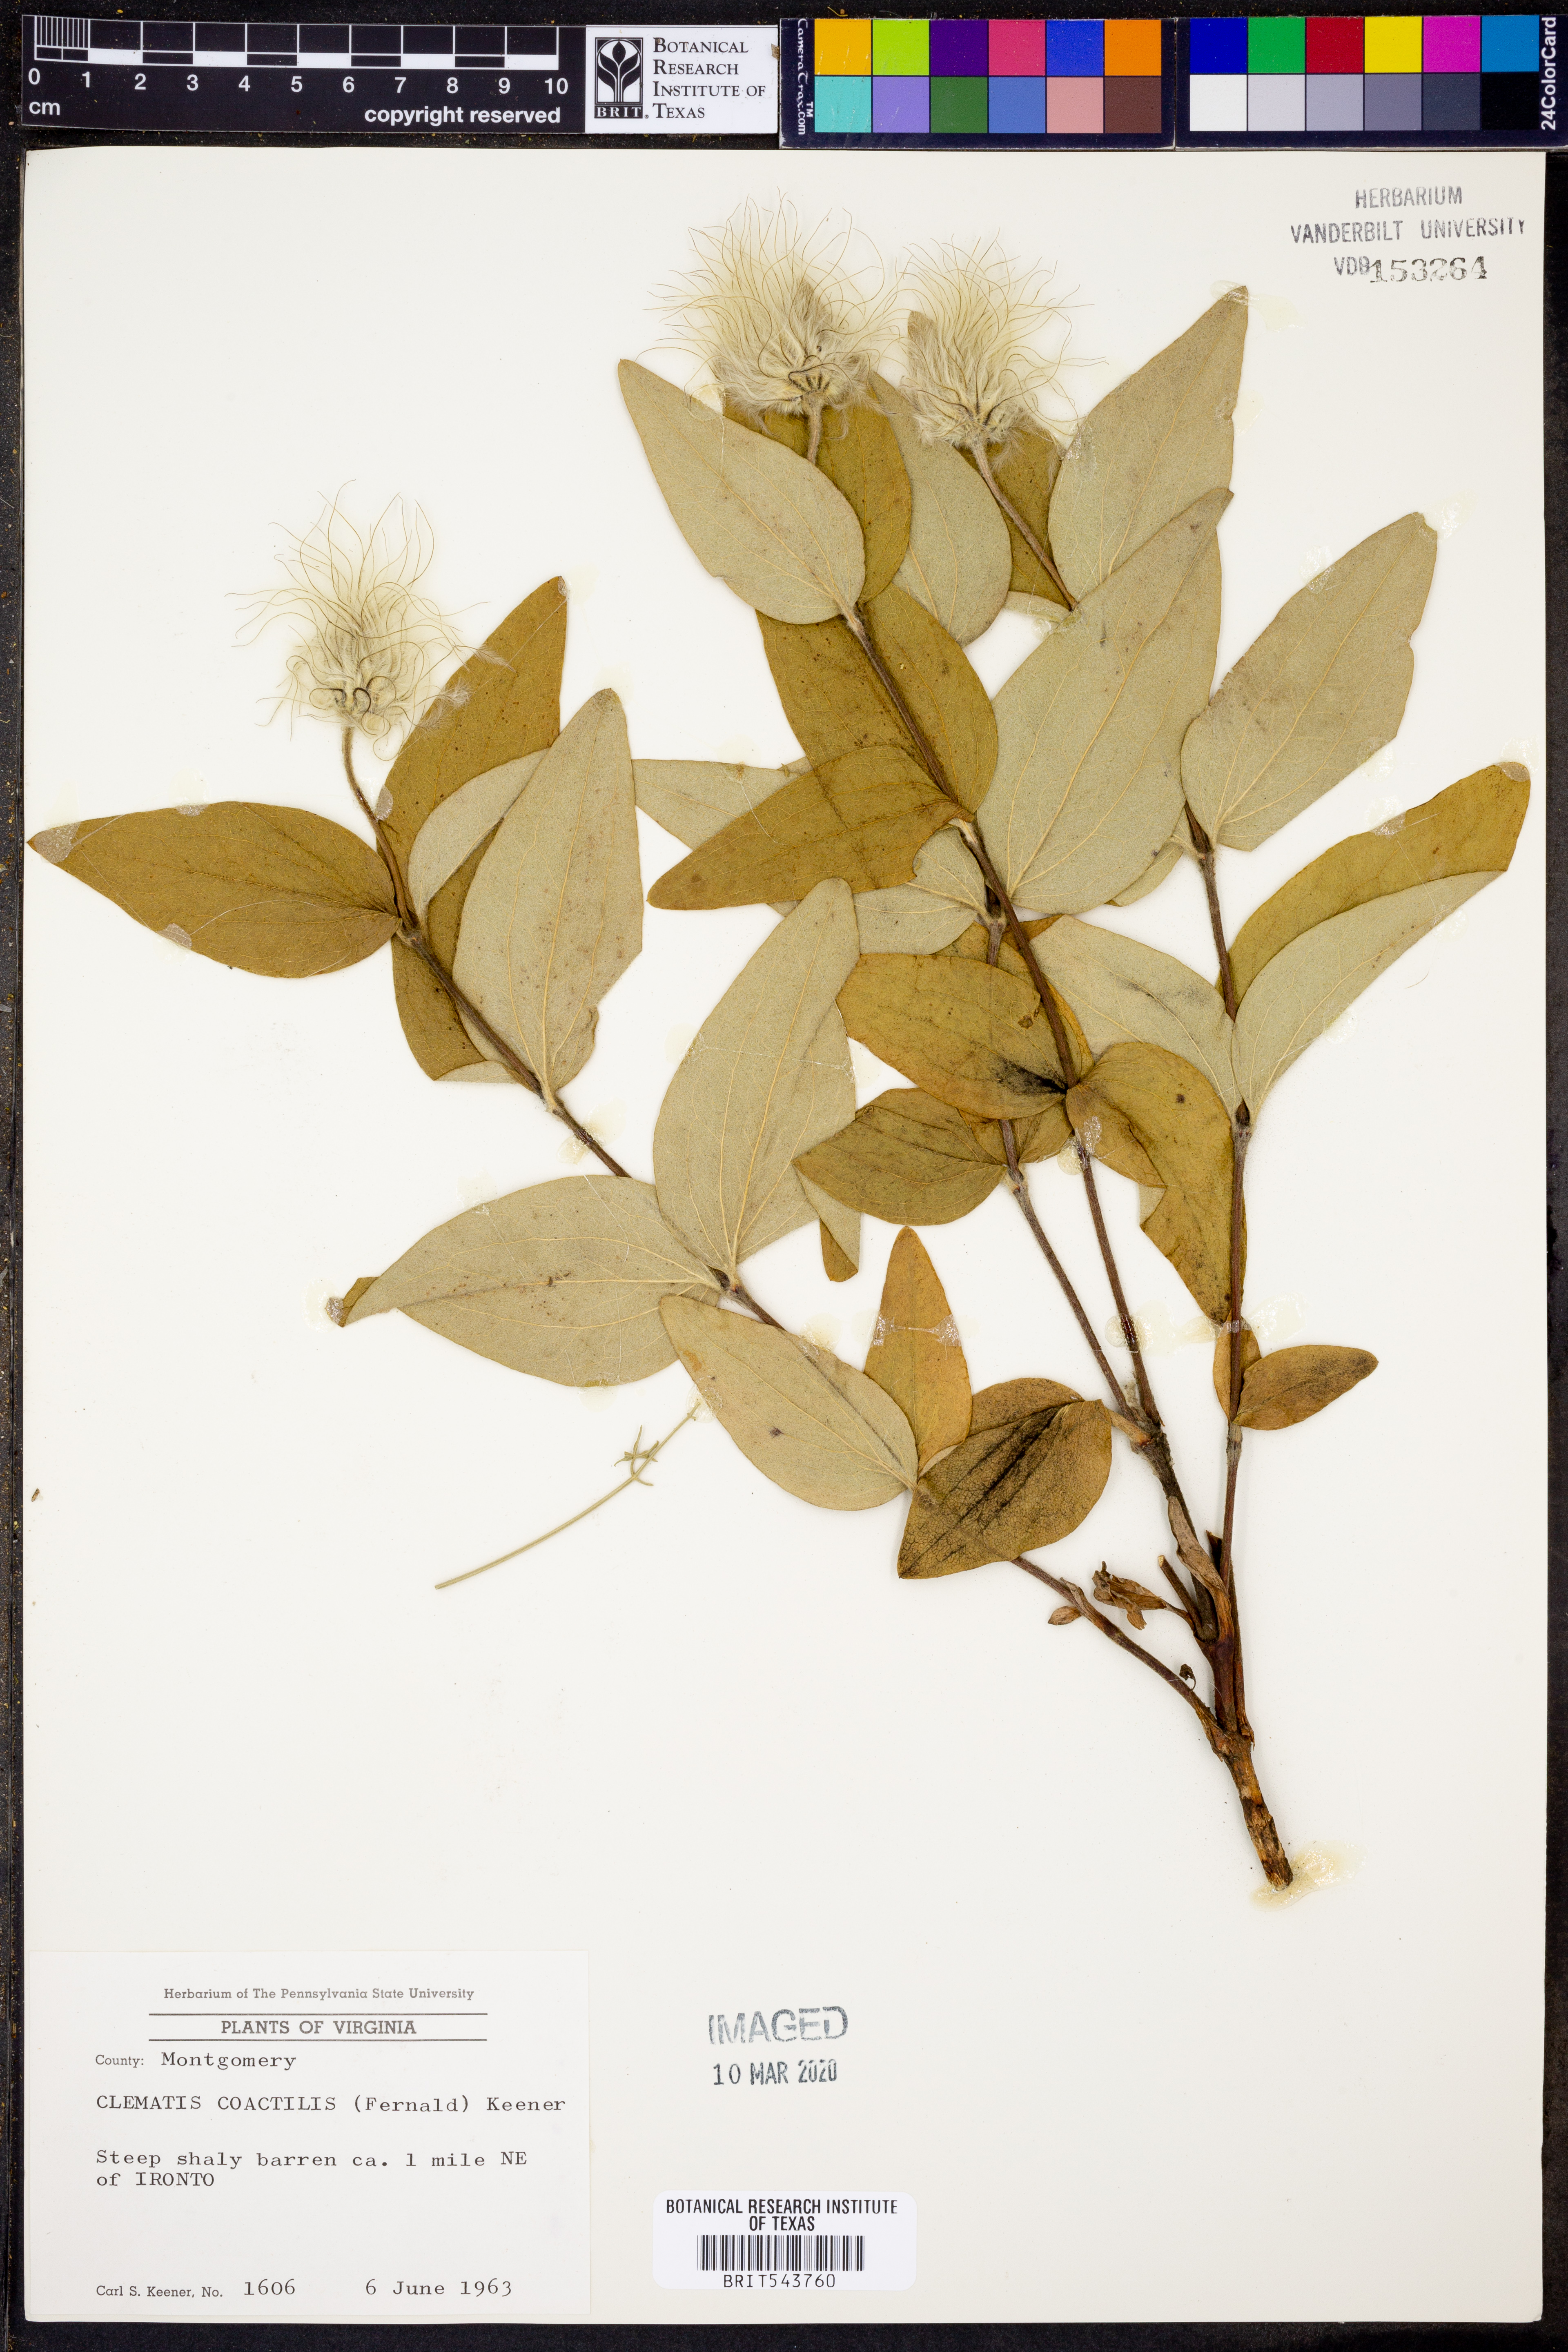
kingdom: Plantae
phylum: Tracheophyta
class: Magnoliopsida
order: Ranunculales
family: Ranunculaceae
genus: Clematis
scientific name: Clematis coactilis
